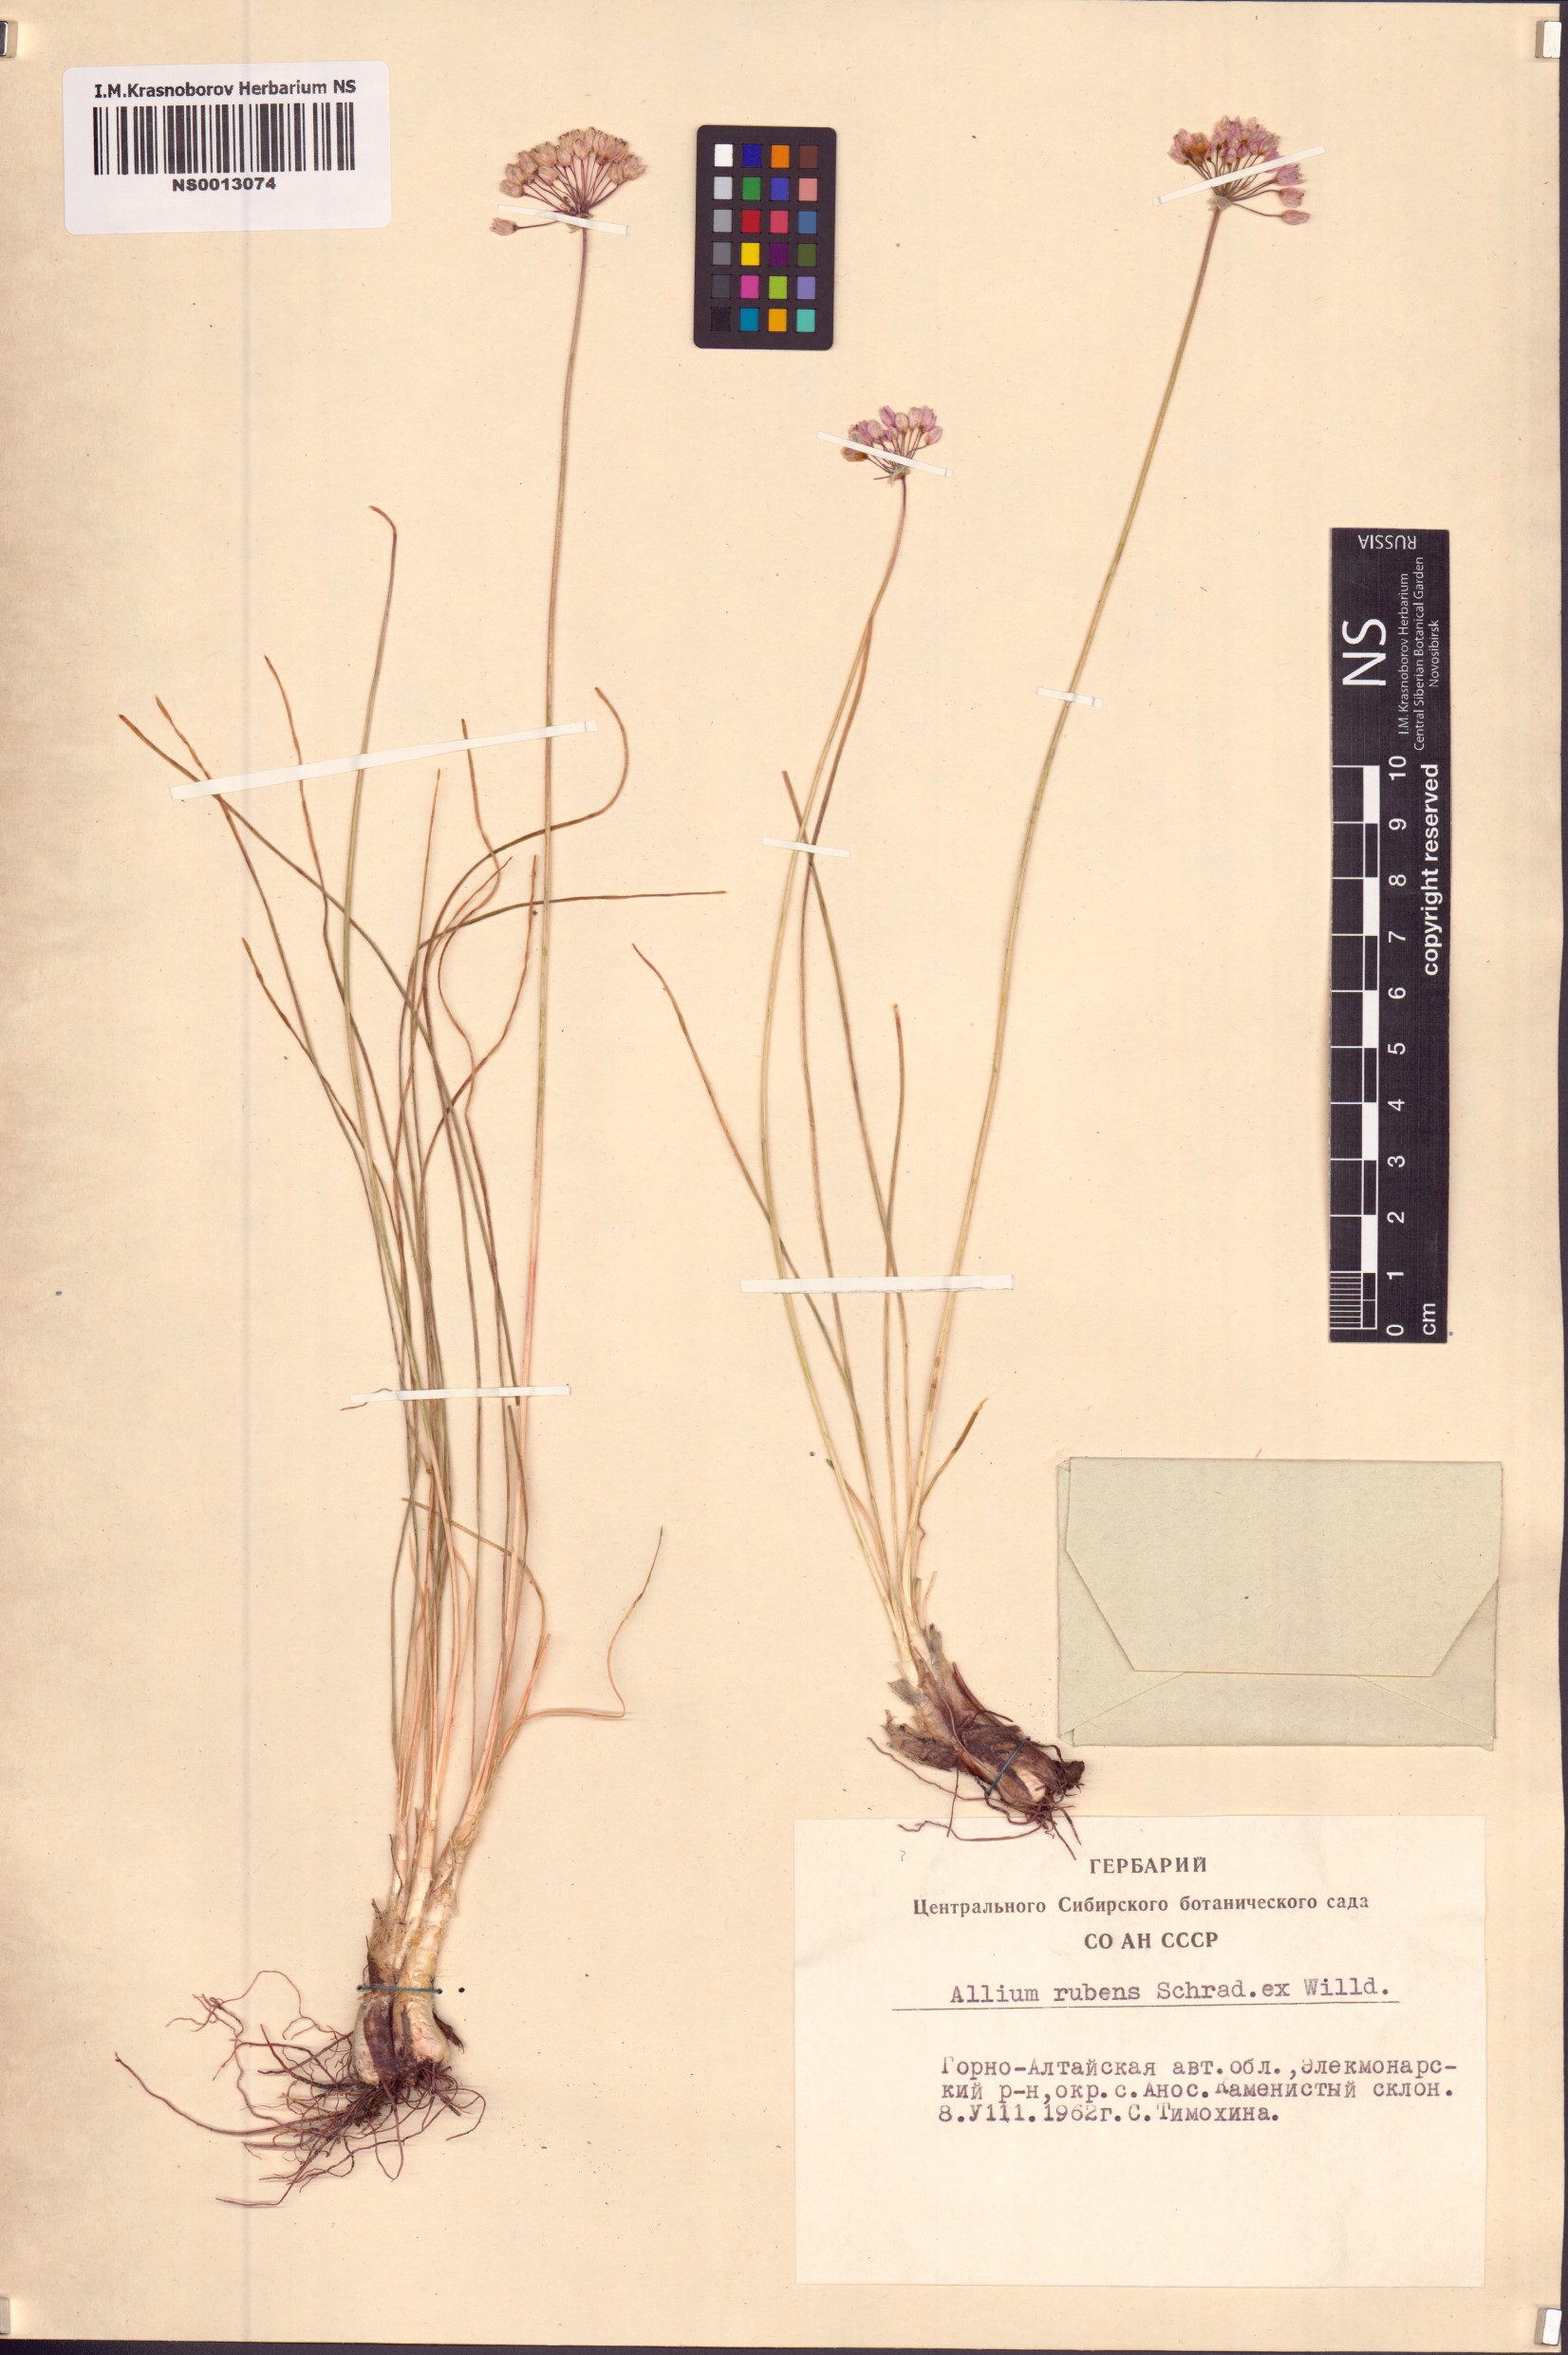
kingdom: Plantae
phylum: Tracheophyta
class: Liliopsida
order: Asparagales
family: Amaryllidaceae
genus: Allium
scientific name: Allium rubens
